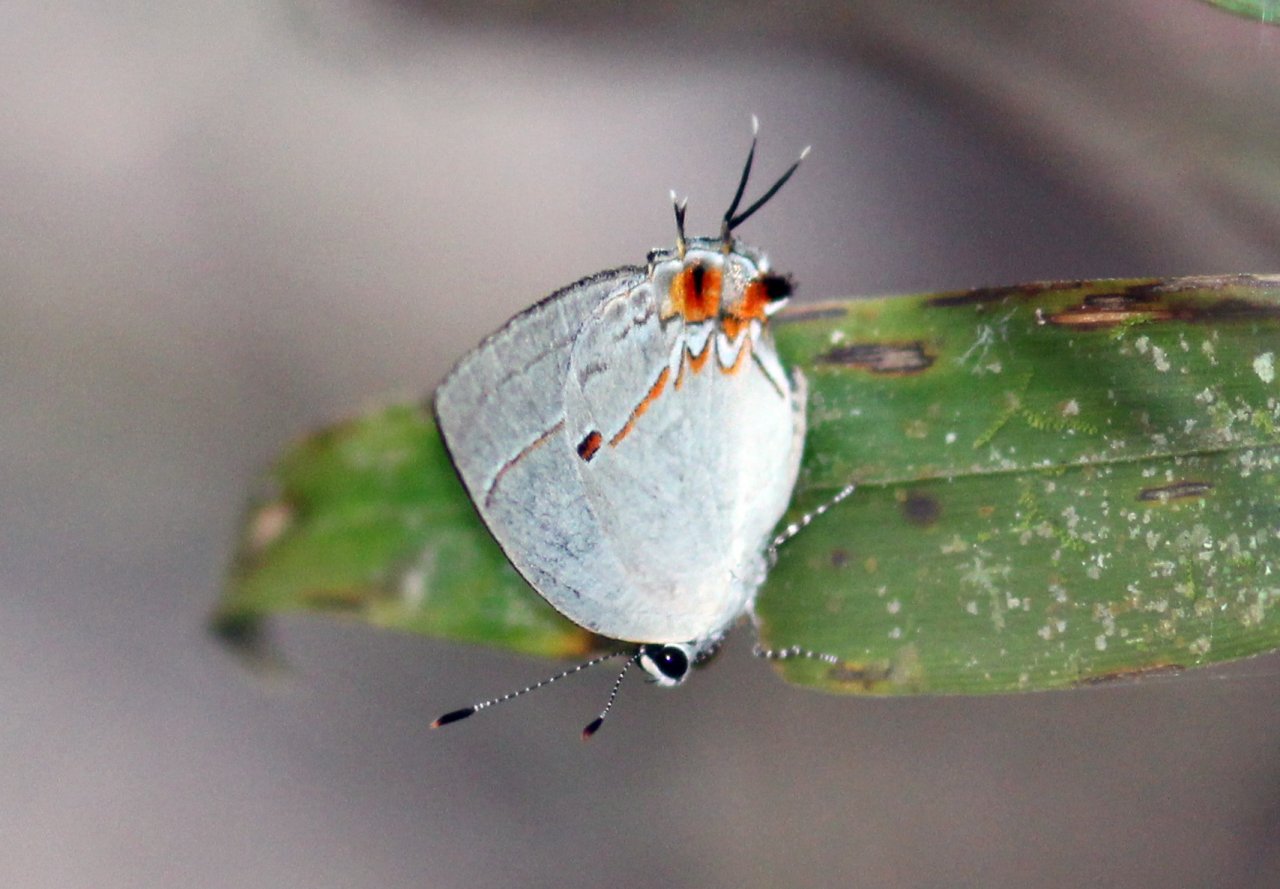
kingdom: Animalia
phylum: Arthropoda
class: Insecta
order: Lepidoptera
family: Lycaenidae
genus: Iaspis
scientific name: Iaspis andersoni
